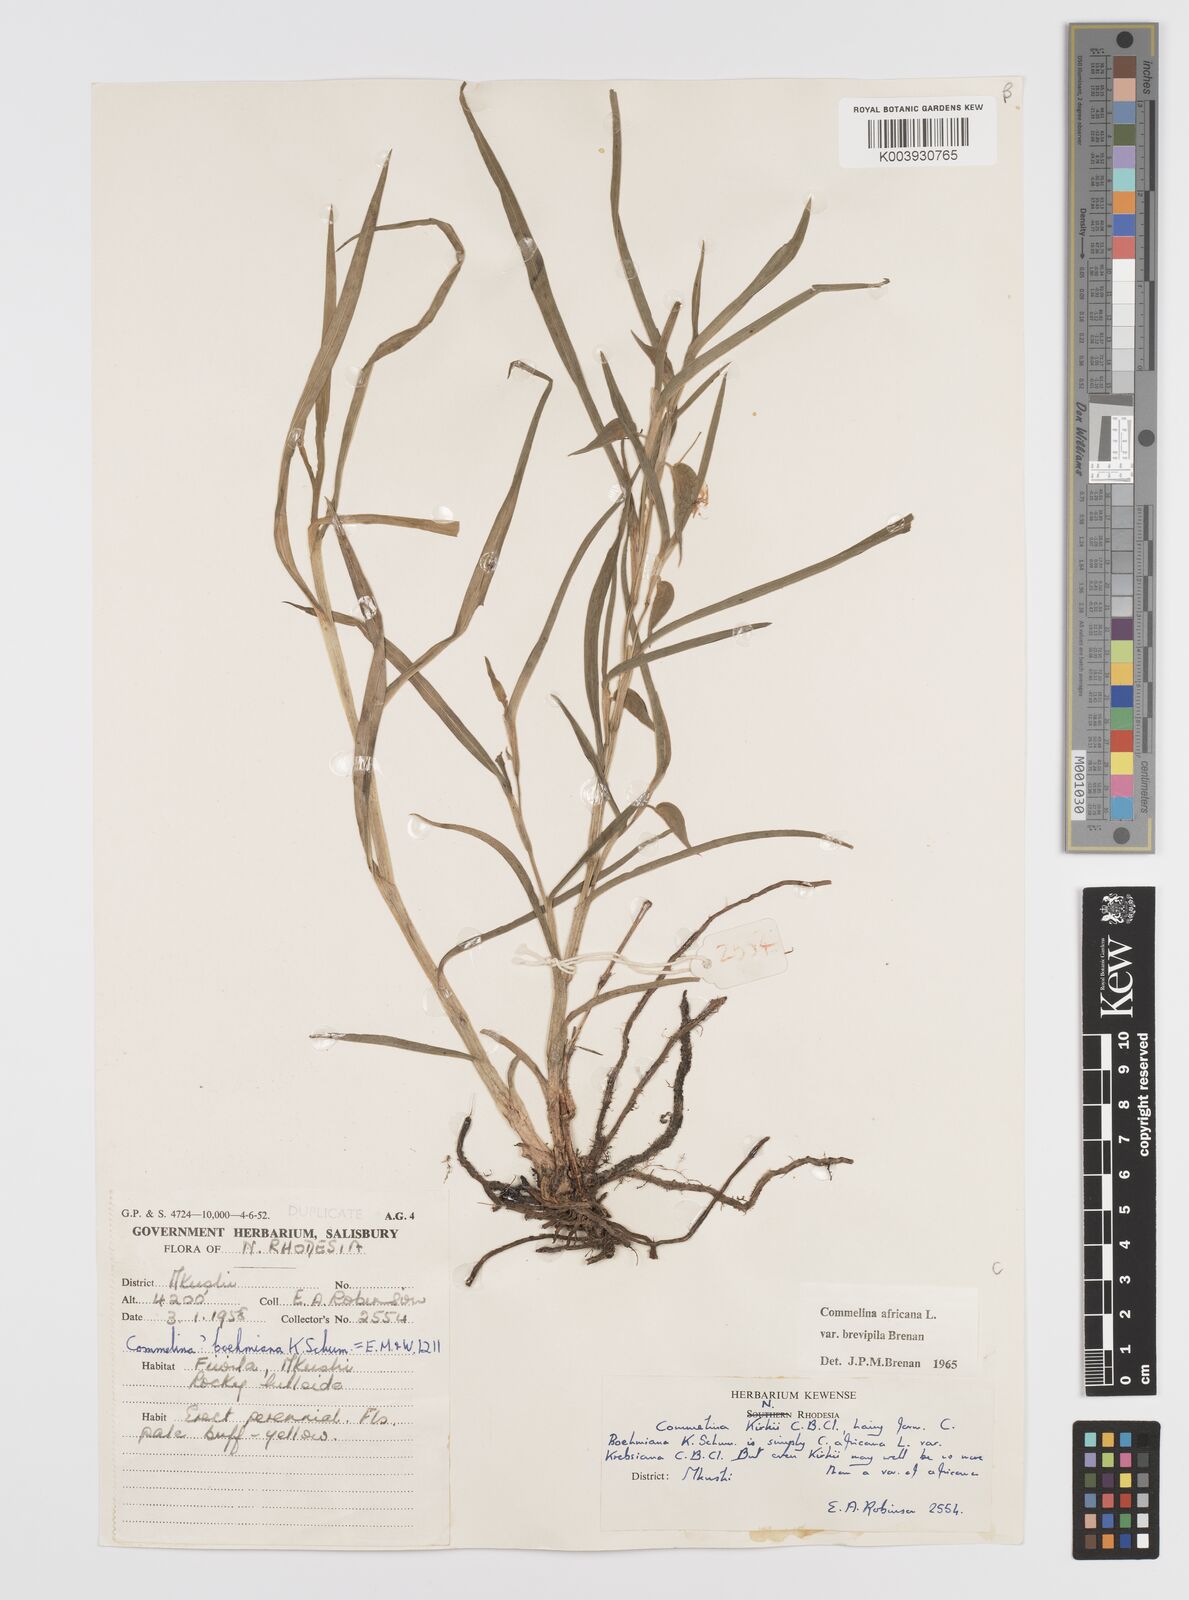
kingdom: Plantae
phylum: Tracheophyta
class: Liliopsida
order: Commelinales
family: Commelinaceae
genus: Commelina
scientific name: Commelina africana
